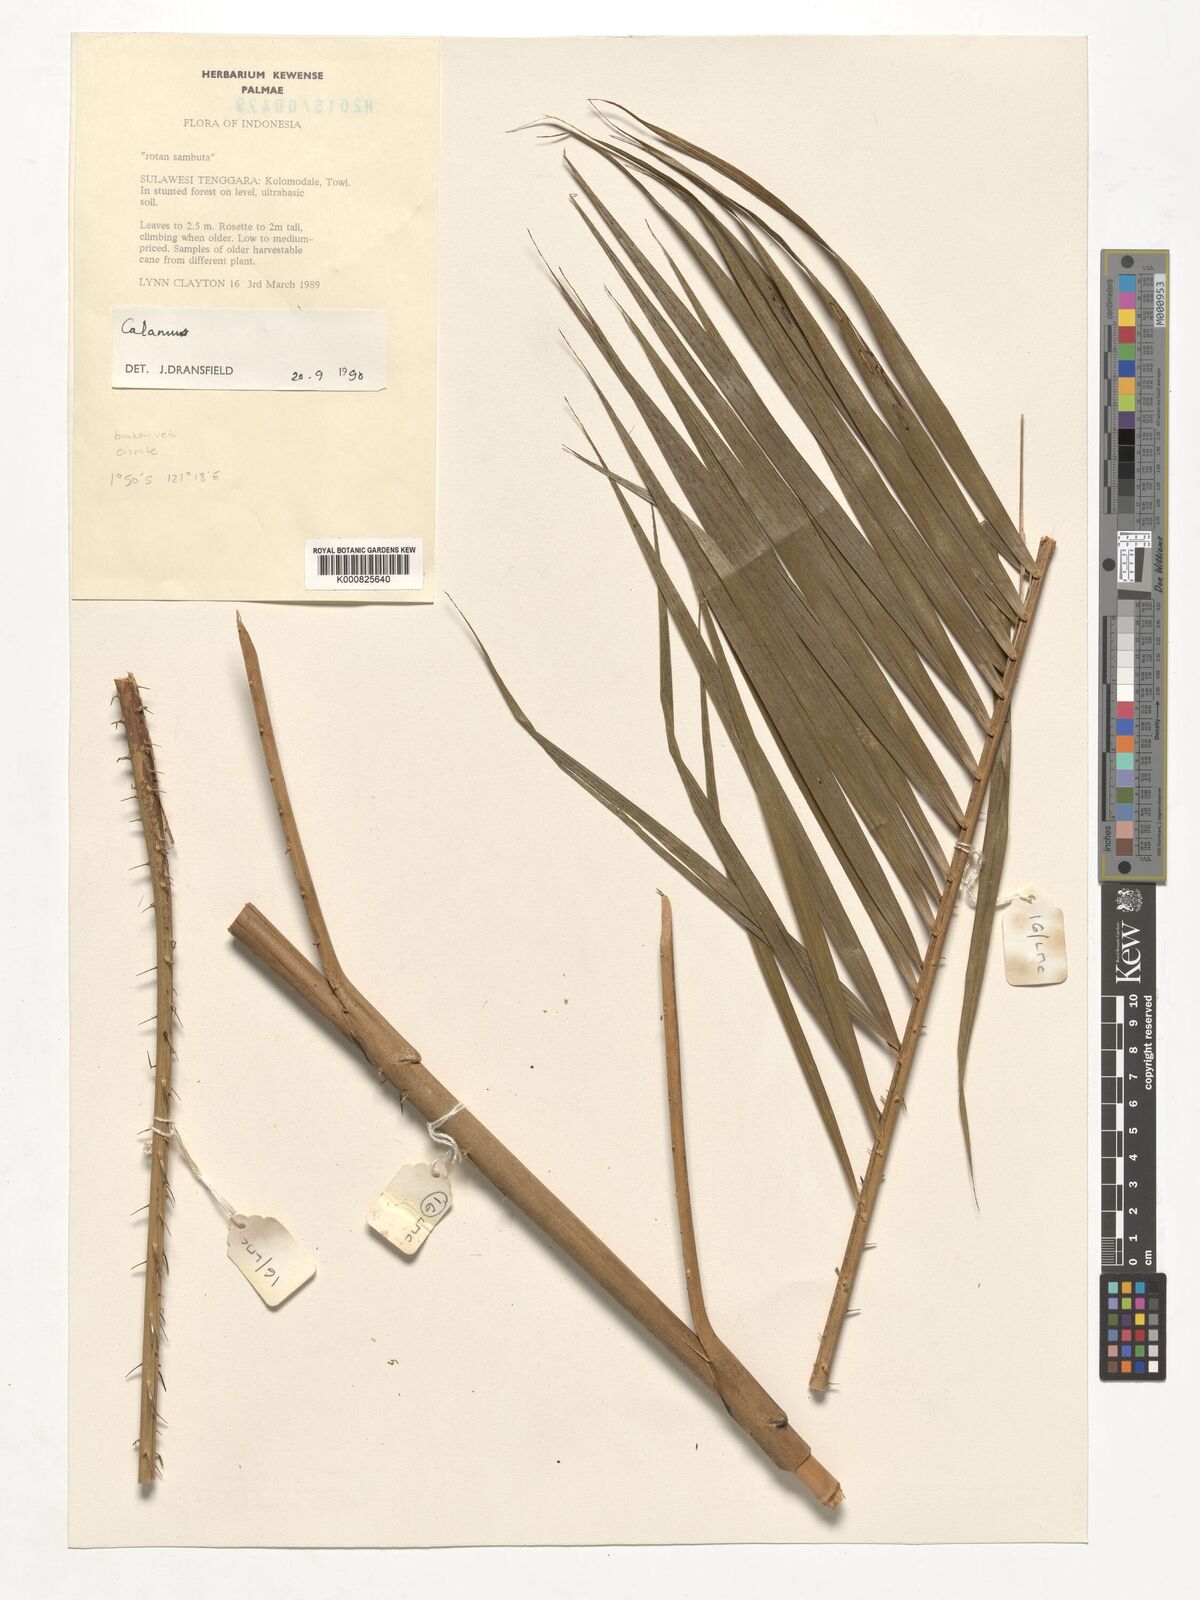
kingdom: Plantae
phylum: Tracheophyta
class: Liliopsida
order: Arecales
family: Arecaceae
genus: Calamus
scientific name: Calamus
